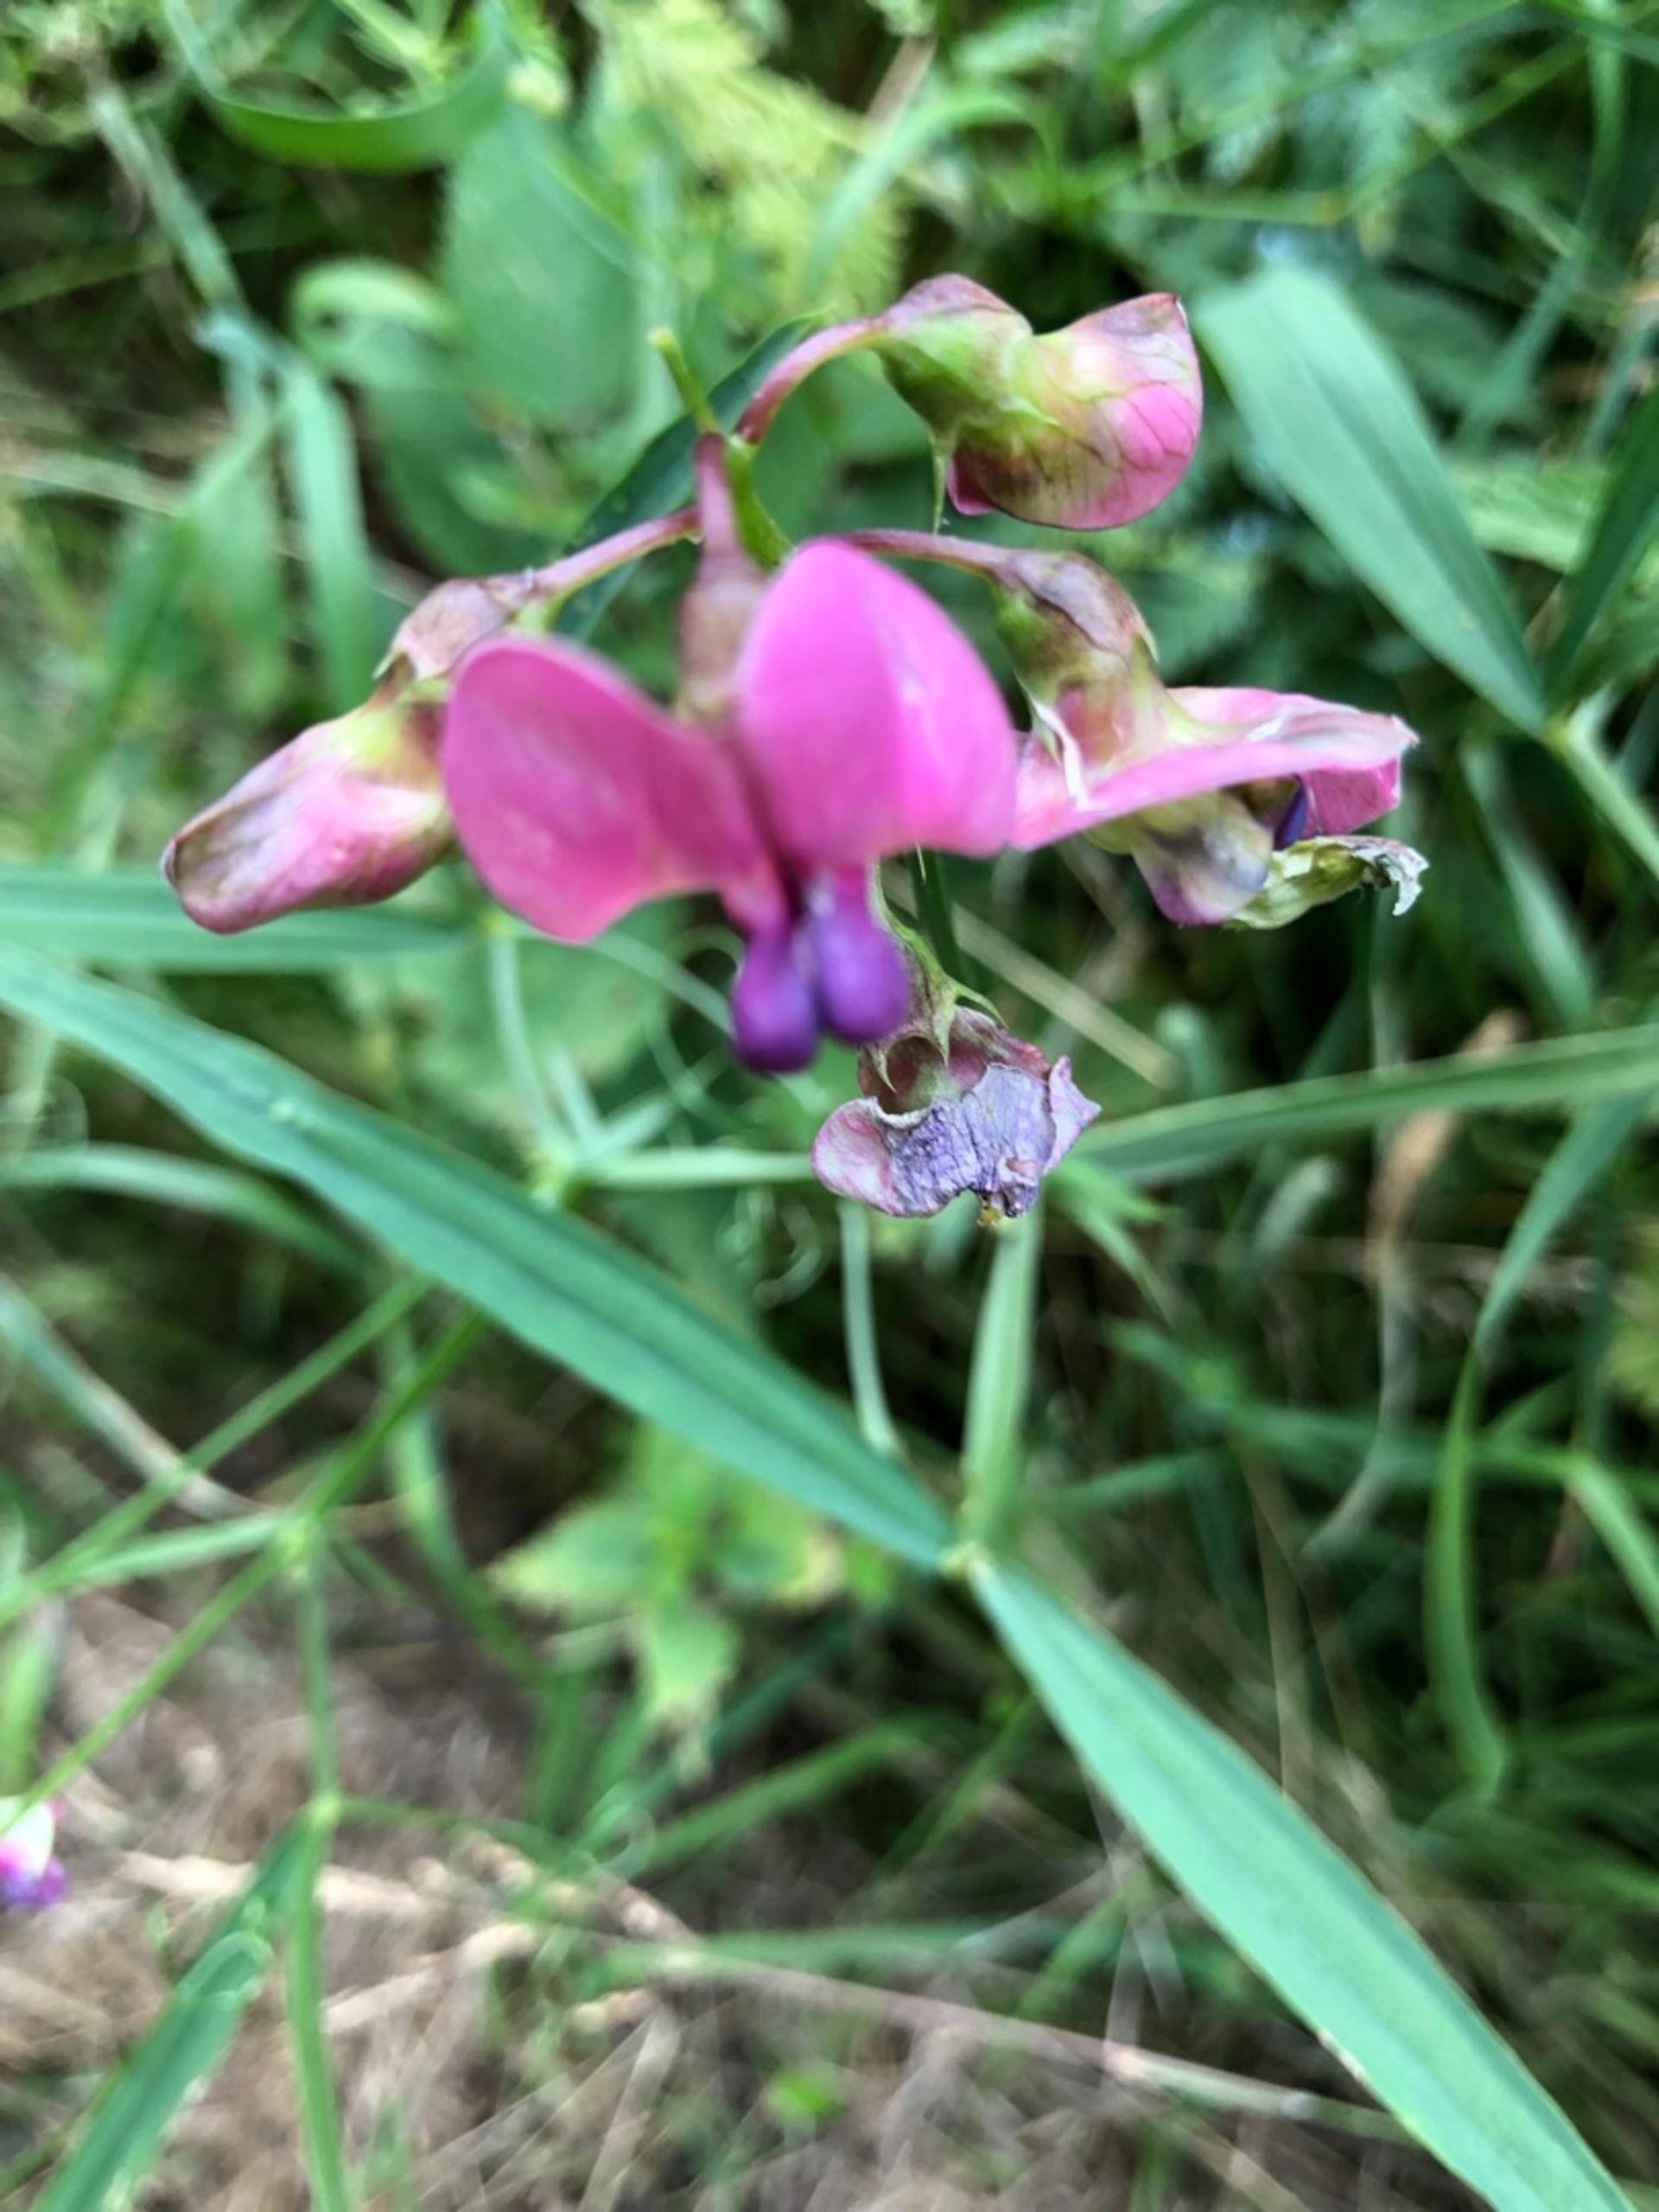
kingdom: Plantae
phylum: Tracheophyta
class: Magnoliopsida
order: Fabales
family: Fabaceae
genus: Lathyrus
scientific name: Lathyrus sylvestris
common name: Skov-fladbælg
